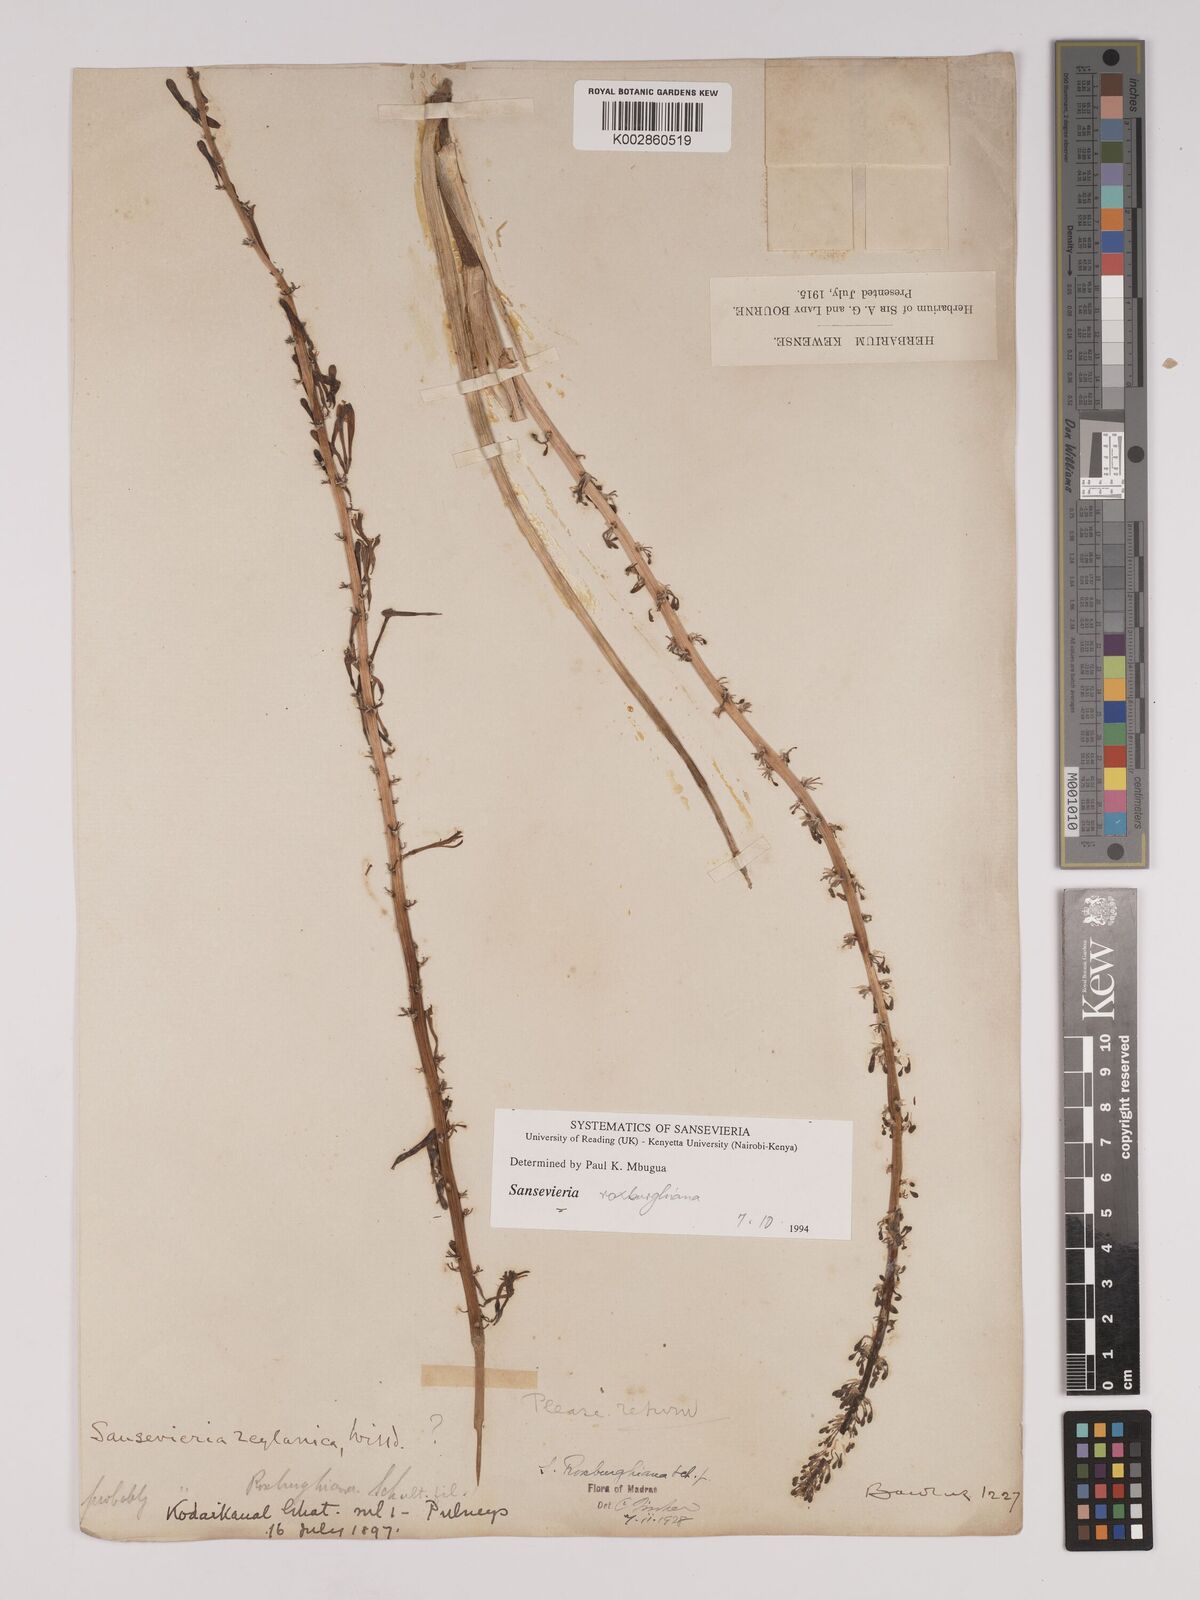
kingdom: Plantae
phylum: Tracheophyta
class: Liliopsida
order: Asparagales
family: Asparagaceae
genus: Dracaena
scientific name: Dracaena roxburghiana
